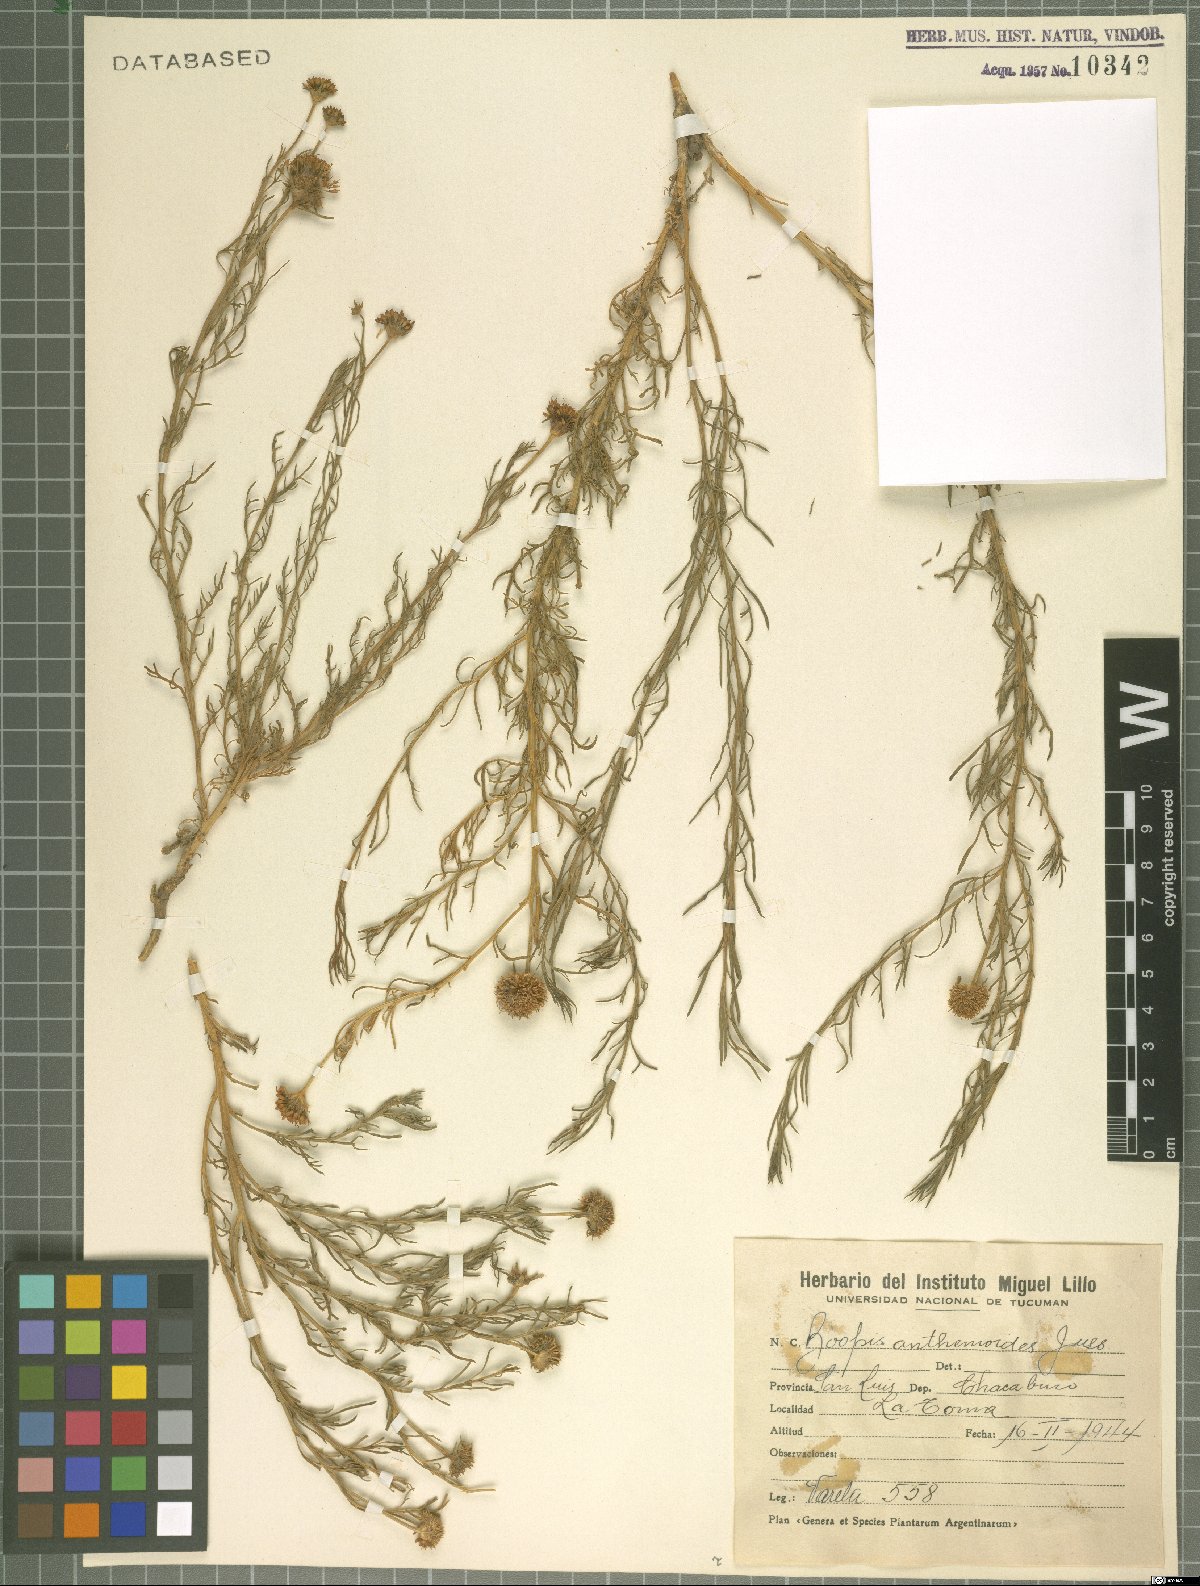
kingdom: Plantae
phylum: Tracheophyta
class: Magnoliopsida
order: Asterales
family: Calyceraceae
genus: Boopis
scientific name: Boopis anthemoides
